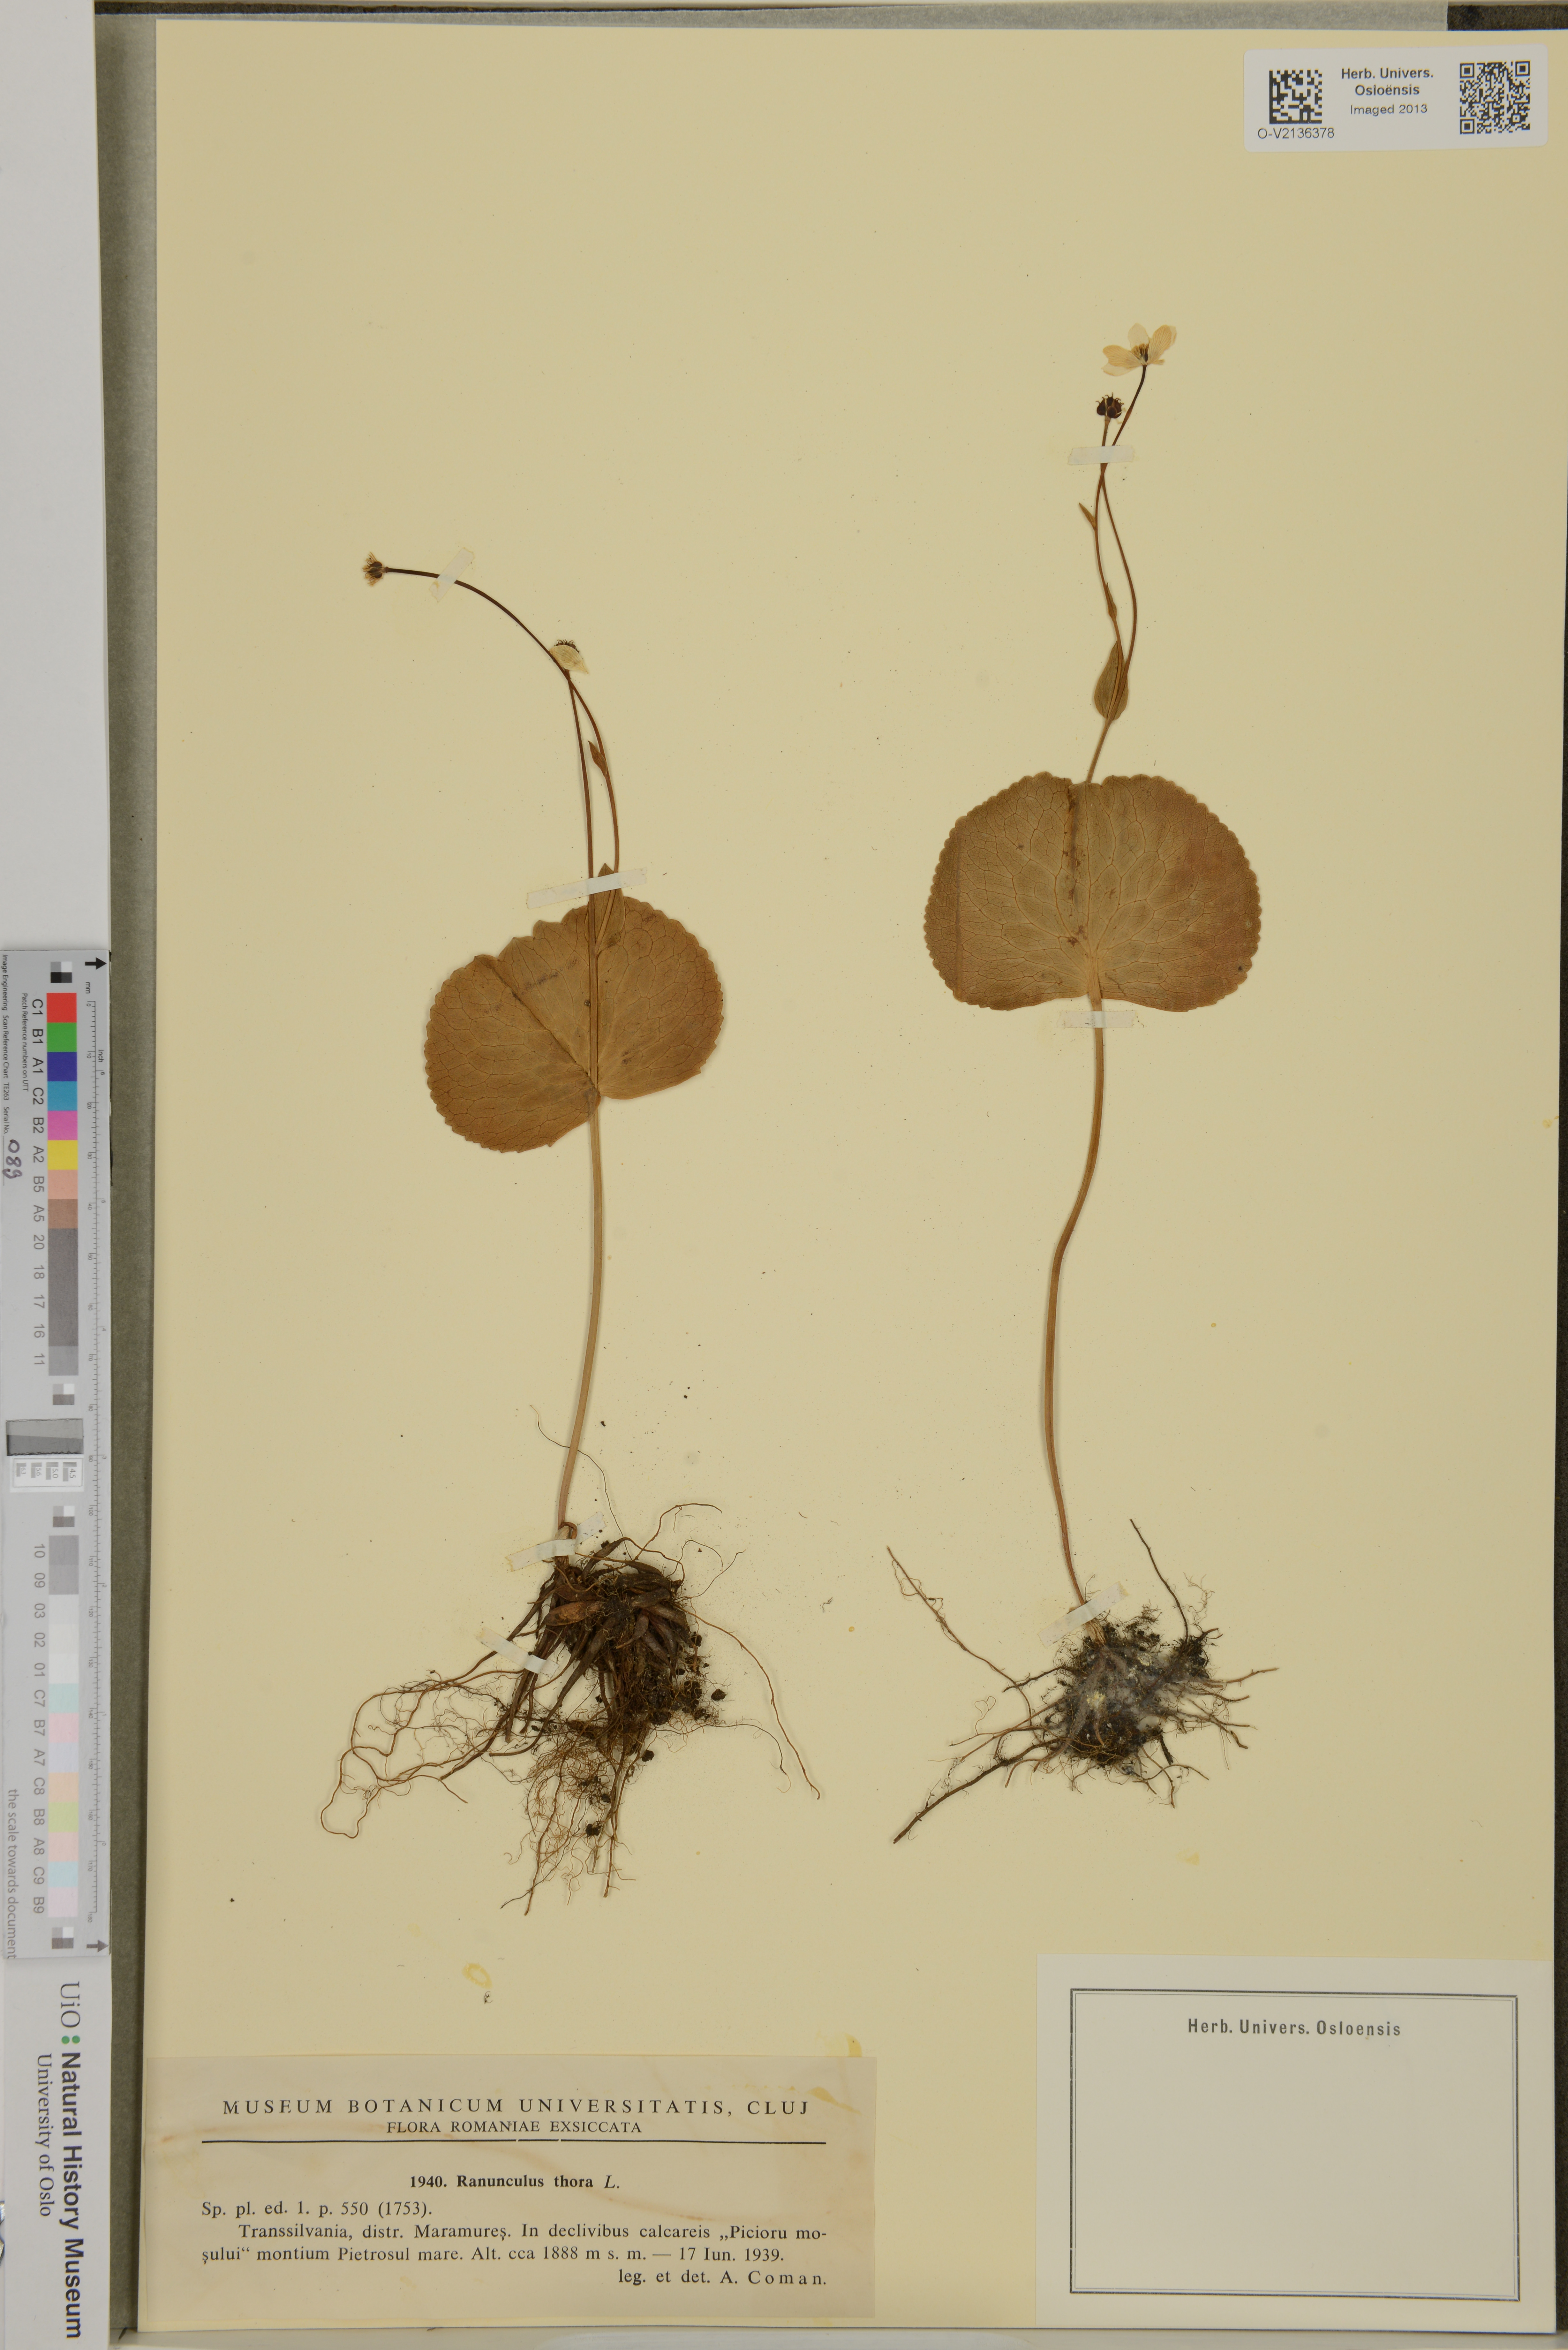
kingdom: Plantae
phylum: Tracheophyta
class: Magnoliopsida
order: Ranunculales
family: Ranunculaceae
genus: Ranunculus
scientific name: Ranunculus thora
